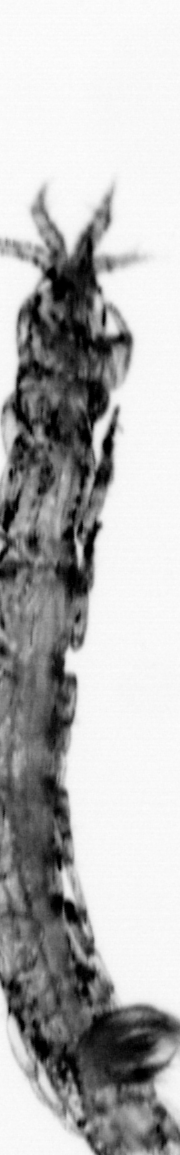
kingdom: Animalia
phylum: Annelida
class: Polychaeta
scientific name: Polychaeta
